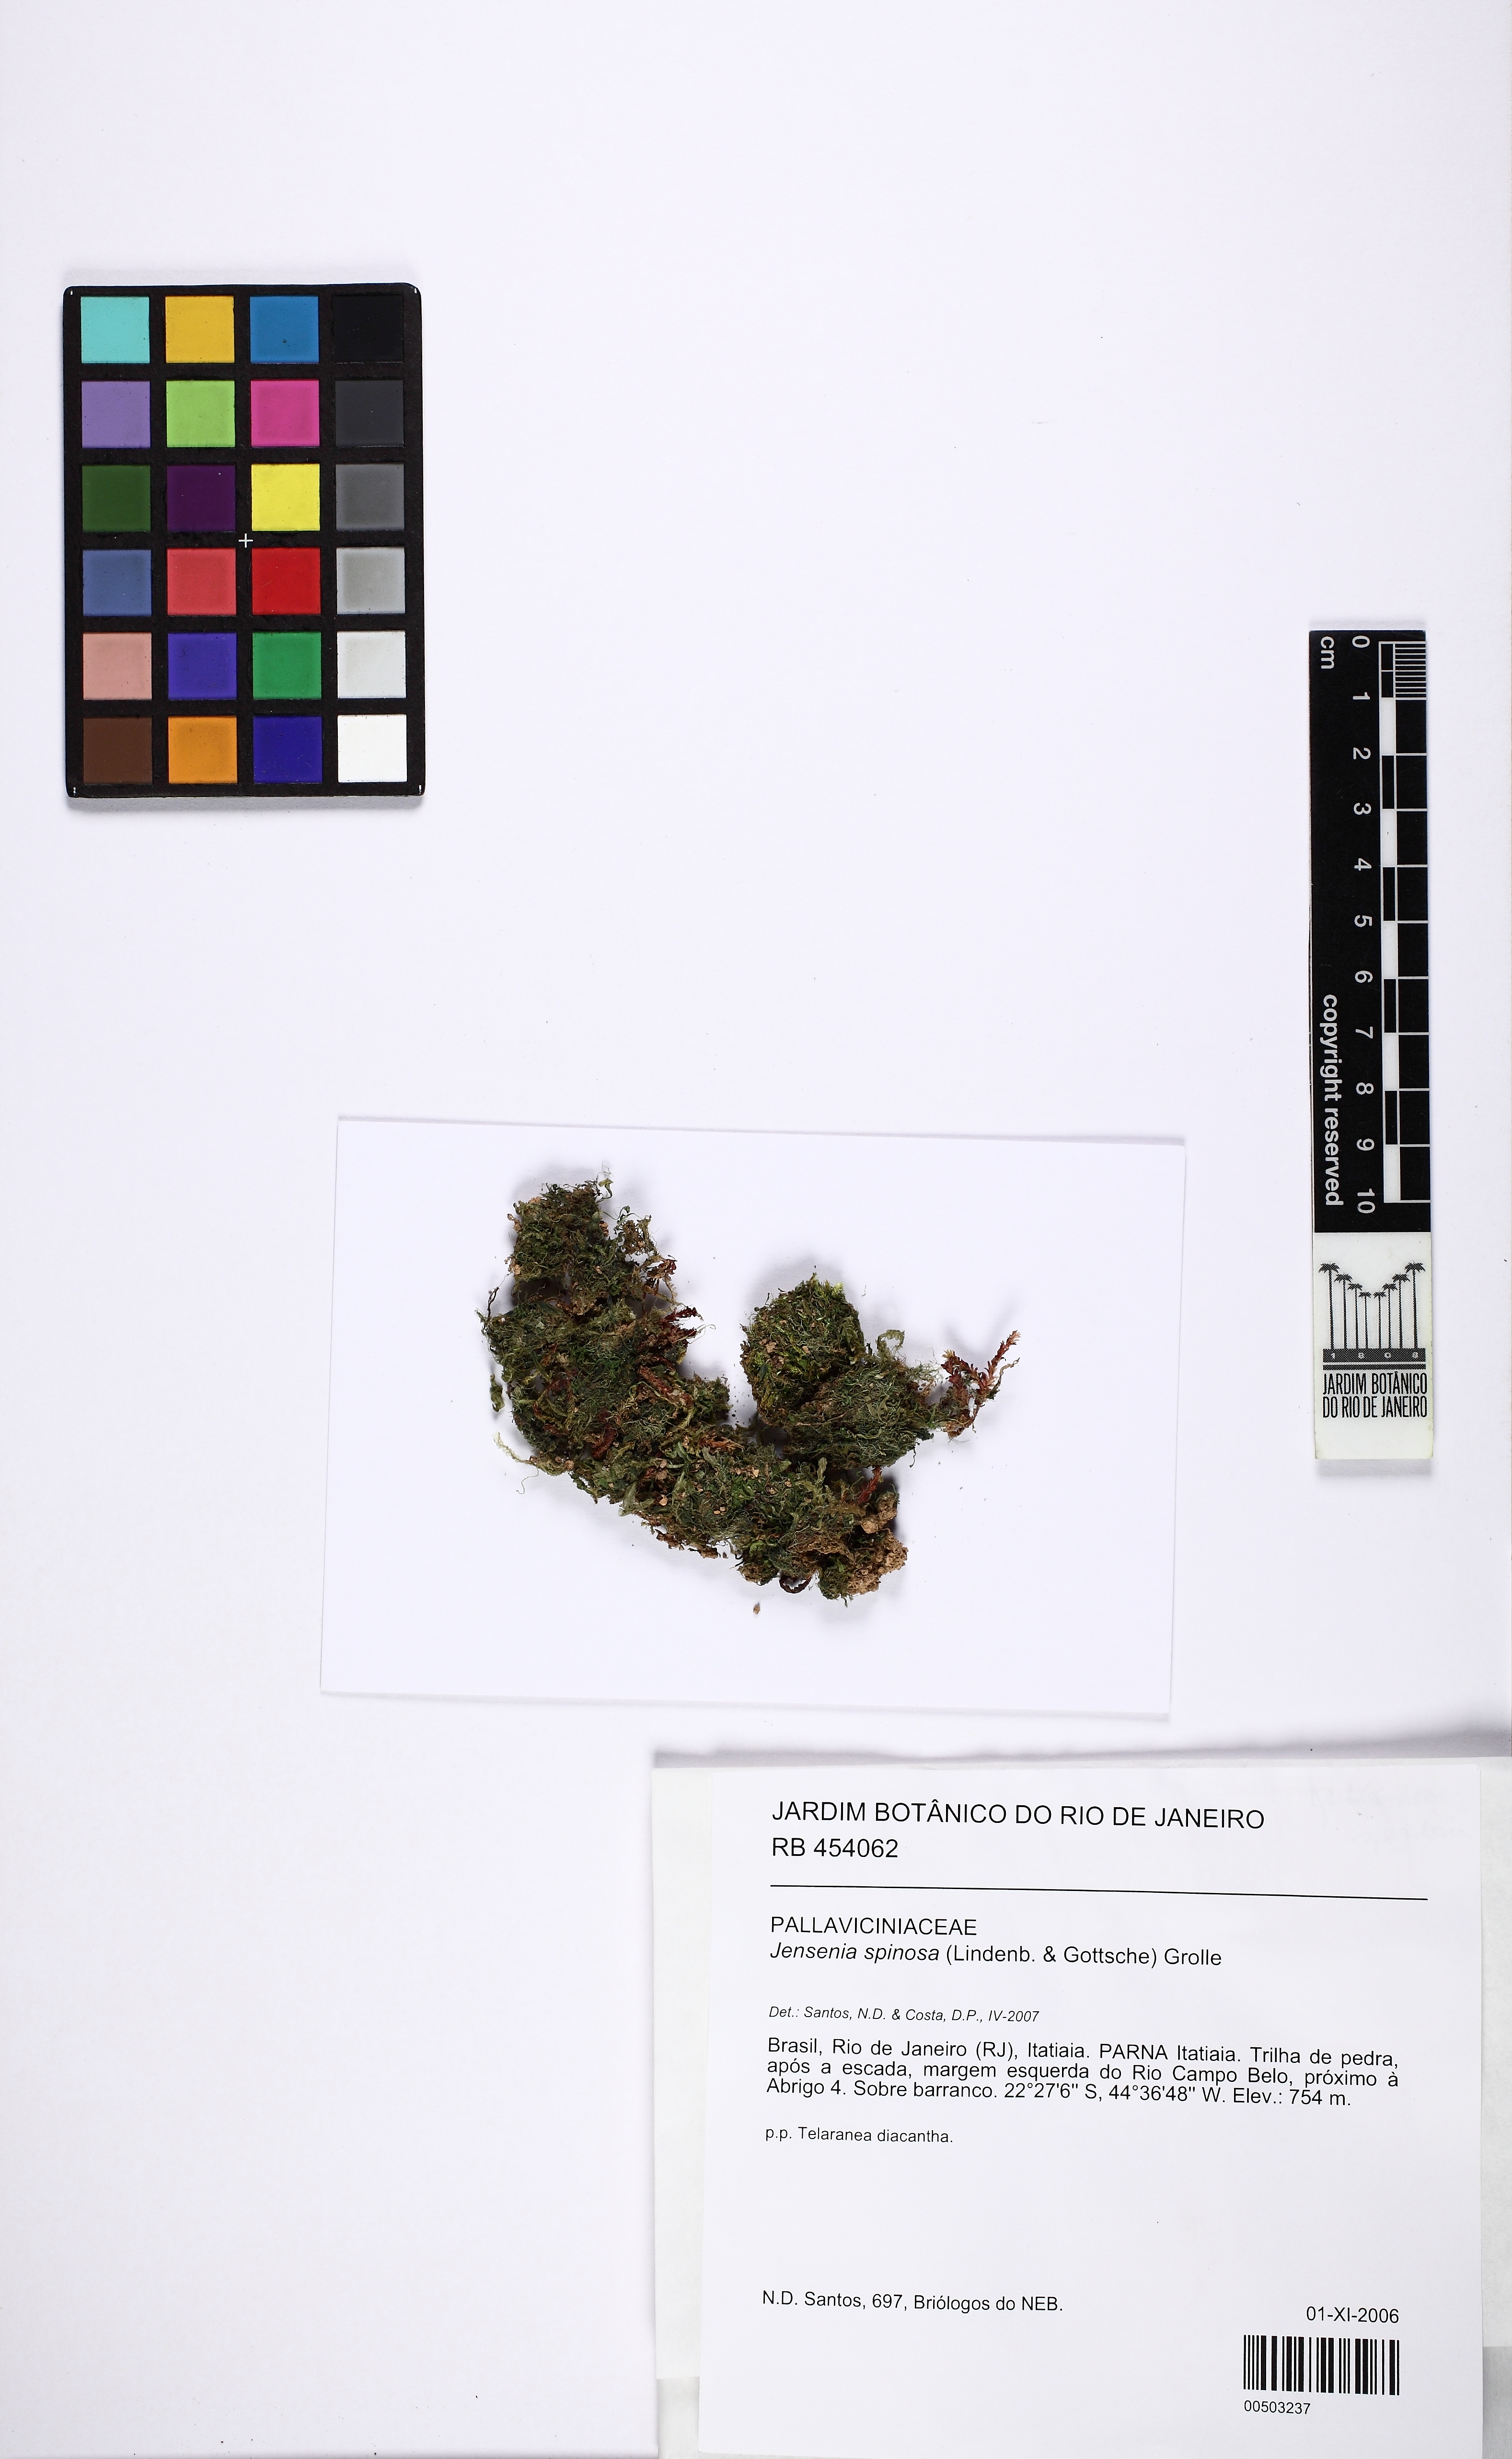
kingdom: Plantae
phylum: Marchantiophyta
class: Jungermanniopsida
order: Pallaviciniales
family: Pallaviciniaceae
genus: Jensenia
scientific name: Jensenia spinosa
